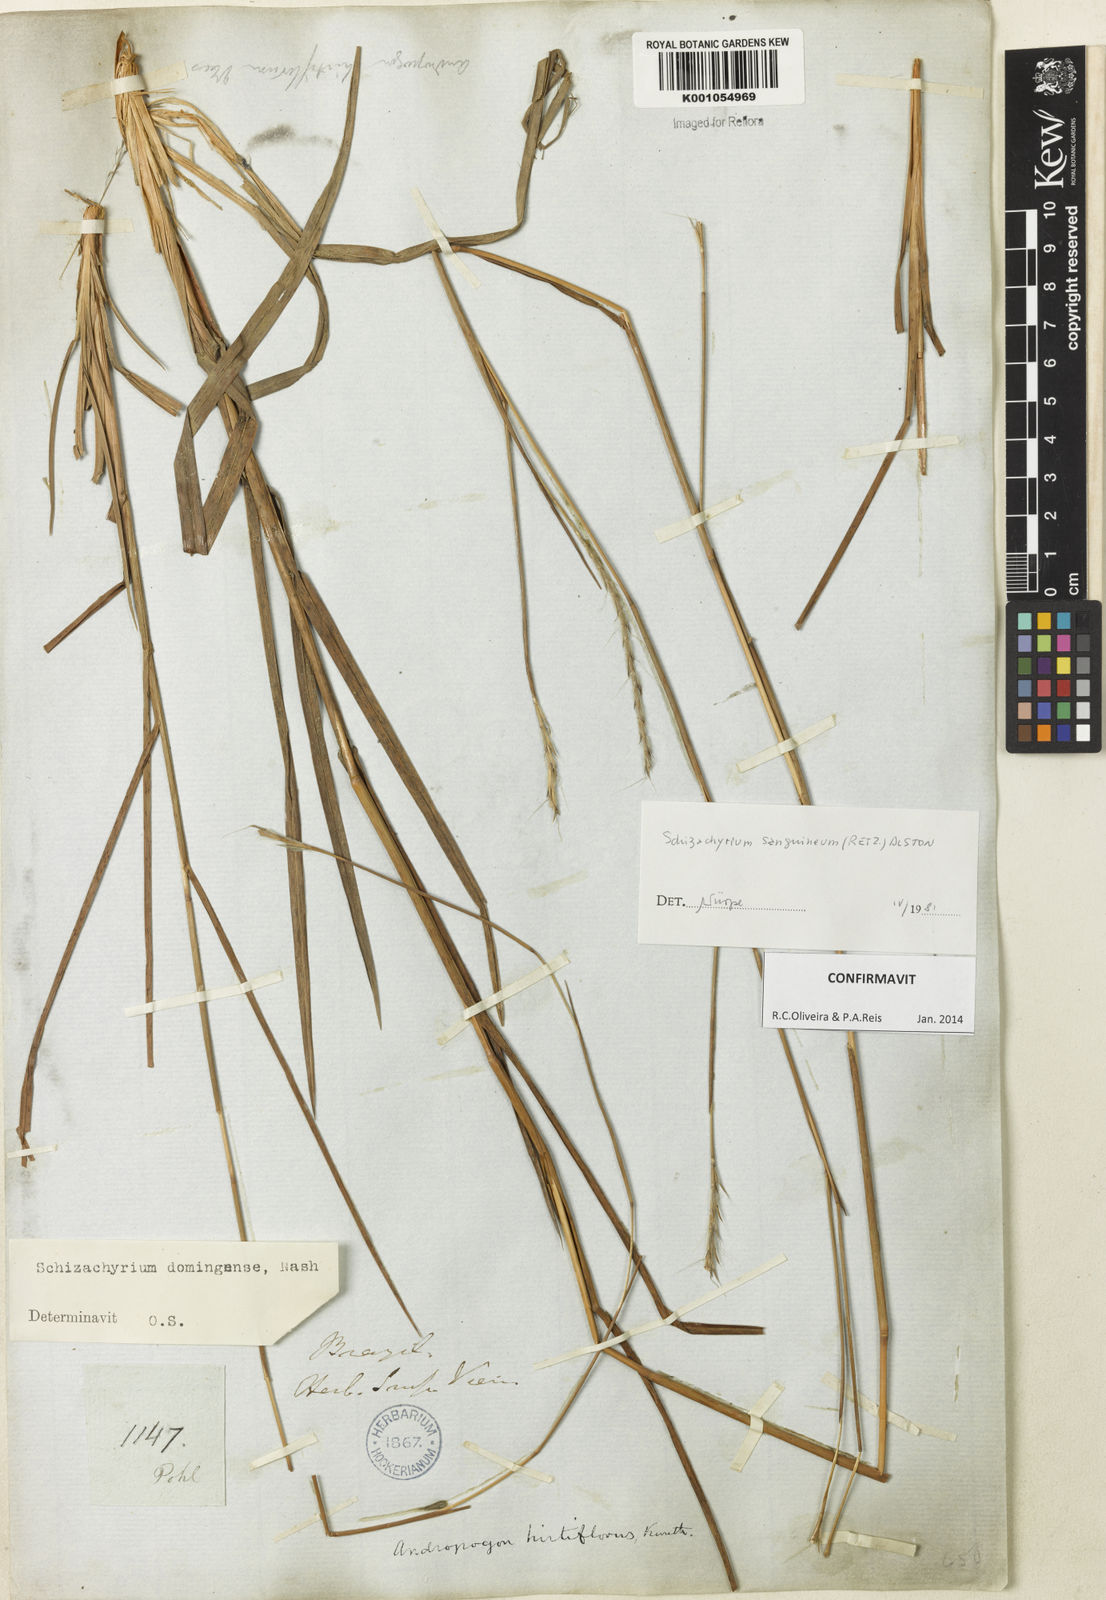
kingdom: Plantae
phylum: Tracheophyta
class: Liliopsida
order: Poales
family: Poaceae
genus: Schizachyrium
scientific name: Schizachyrium sanguineum
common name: Crimson bluestem
